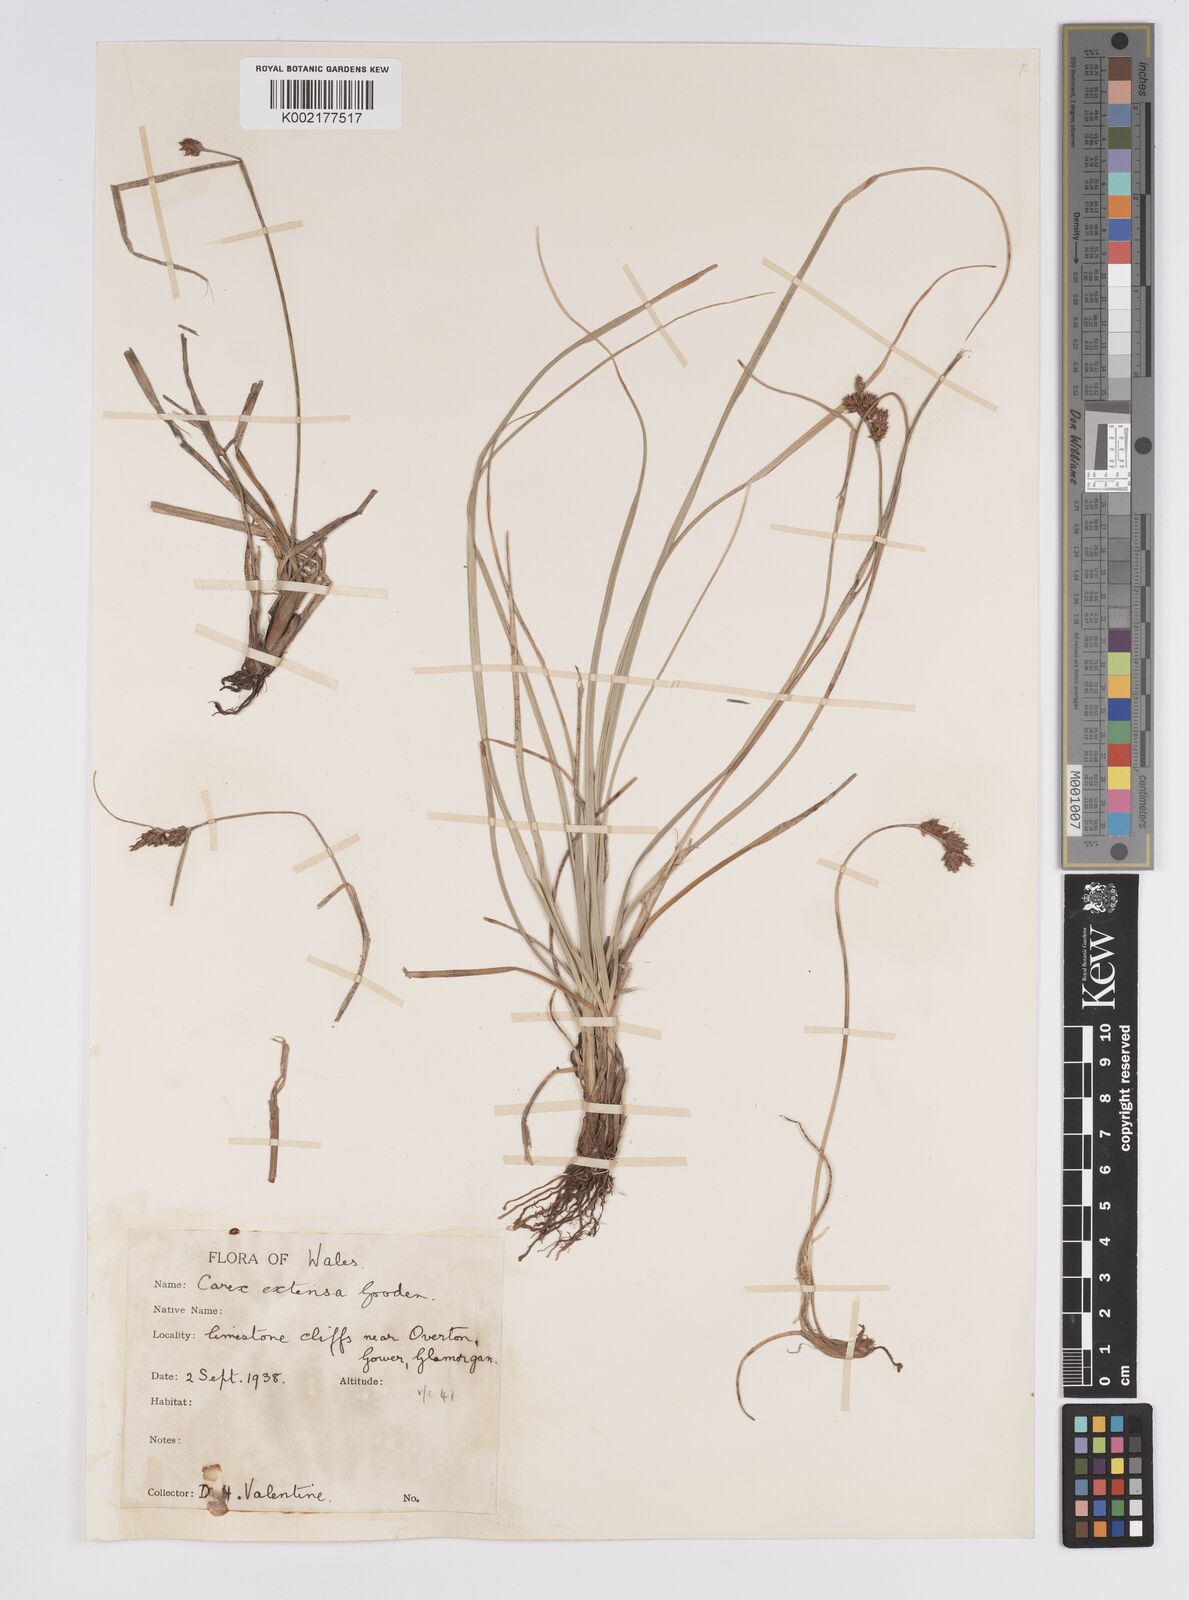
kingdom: Plantae
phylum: Tracheophyta
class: Liliopsida
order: Poales
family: Cyperaceae
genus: Carex
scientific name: Carex extensa
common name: Long-bracted sedge
